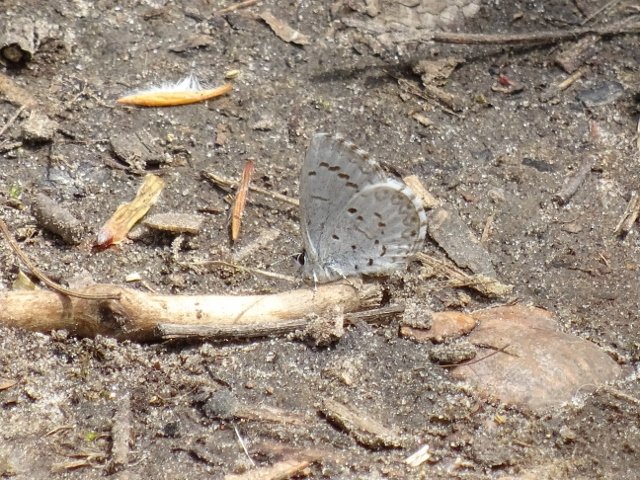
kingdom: Animalia
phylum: Arthropoda
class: Insecta
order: Lepidoptera
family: Lycaenidae
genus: Celastrina
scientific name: Celastrina
